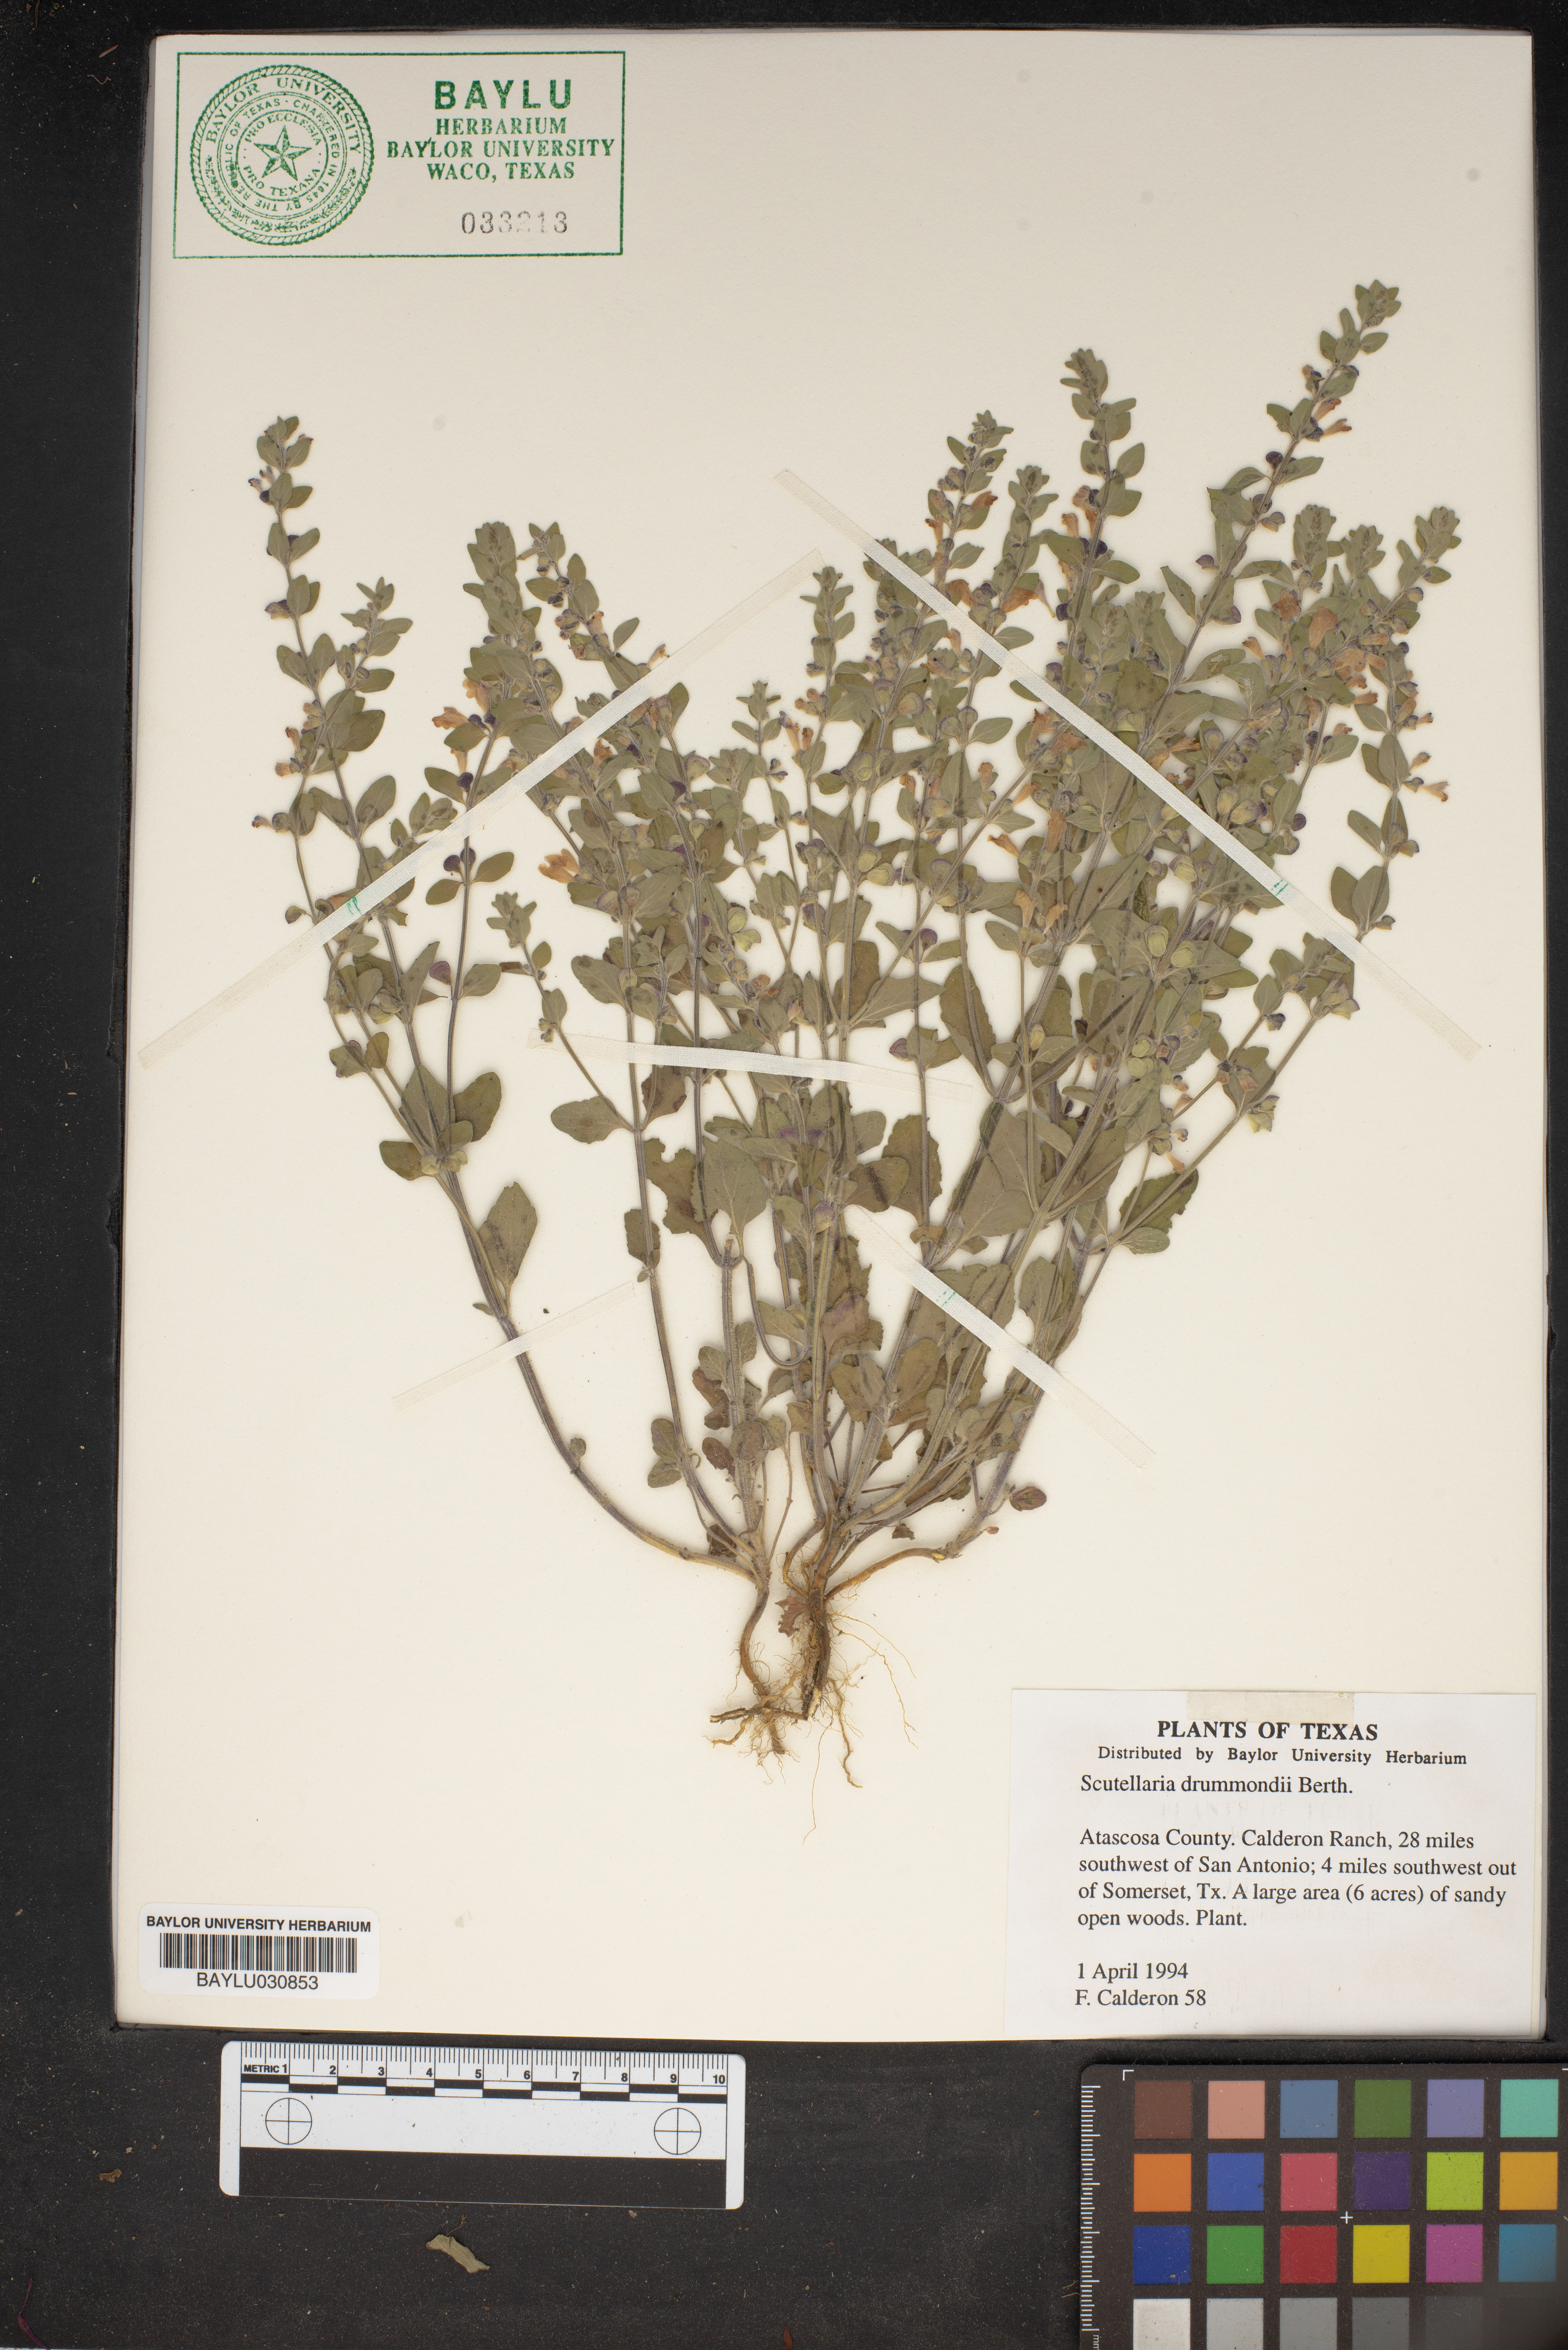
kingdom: Plantae
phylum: Tracheophyta
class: Magnoliopsida
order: Lamiales
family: Lamiaceae
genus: Scutellaria
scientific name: Scutellaria drummondii
